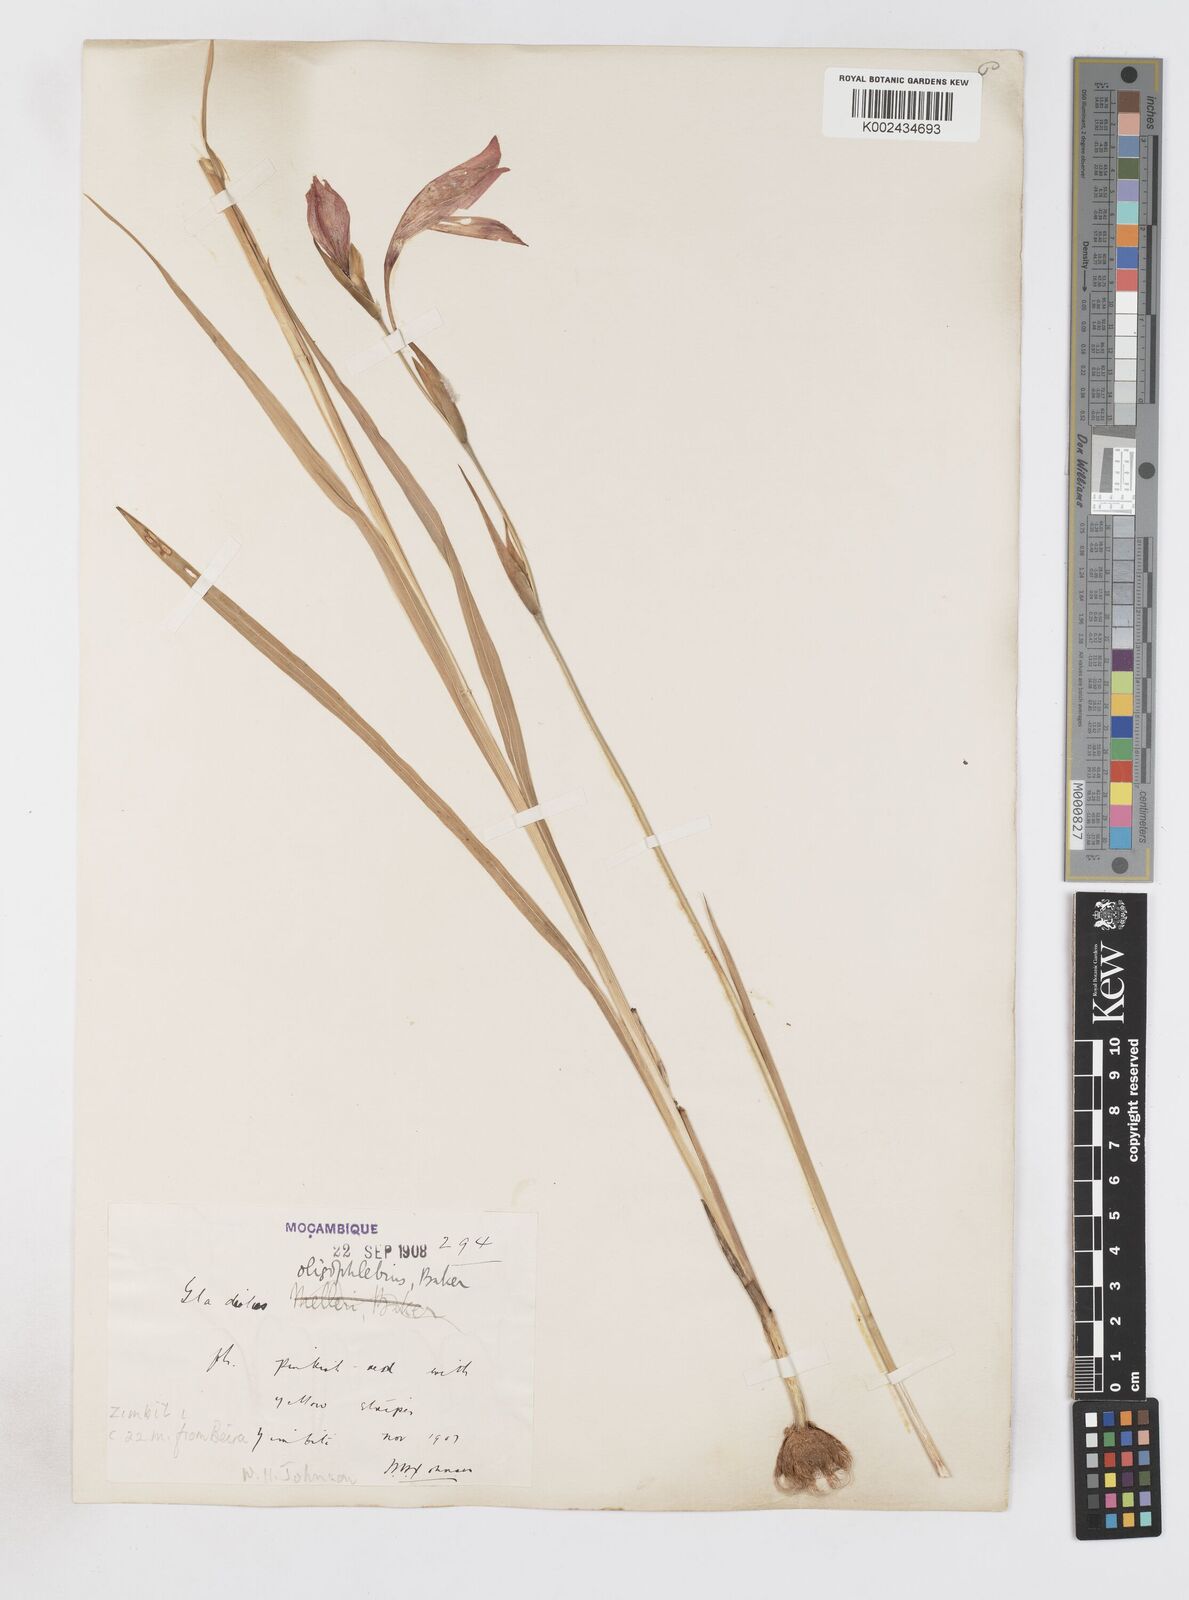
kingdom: Plantae
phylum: Tracheophyta
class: Liliopsida
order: Asparagales
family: Iridaceae
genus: Gladiolus
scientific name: Gladiolus decoratus
